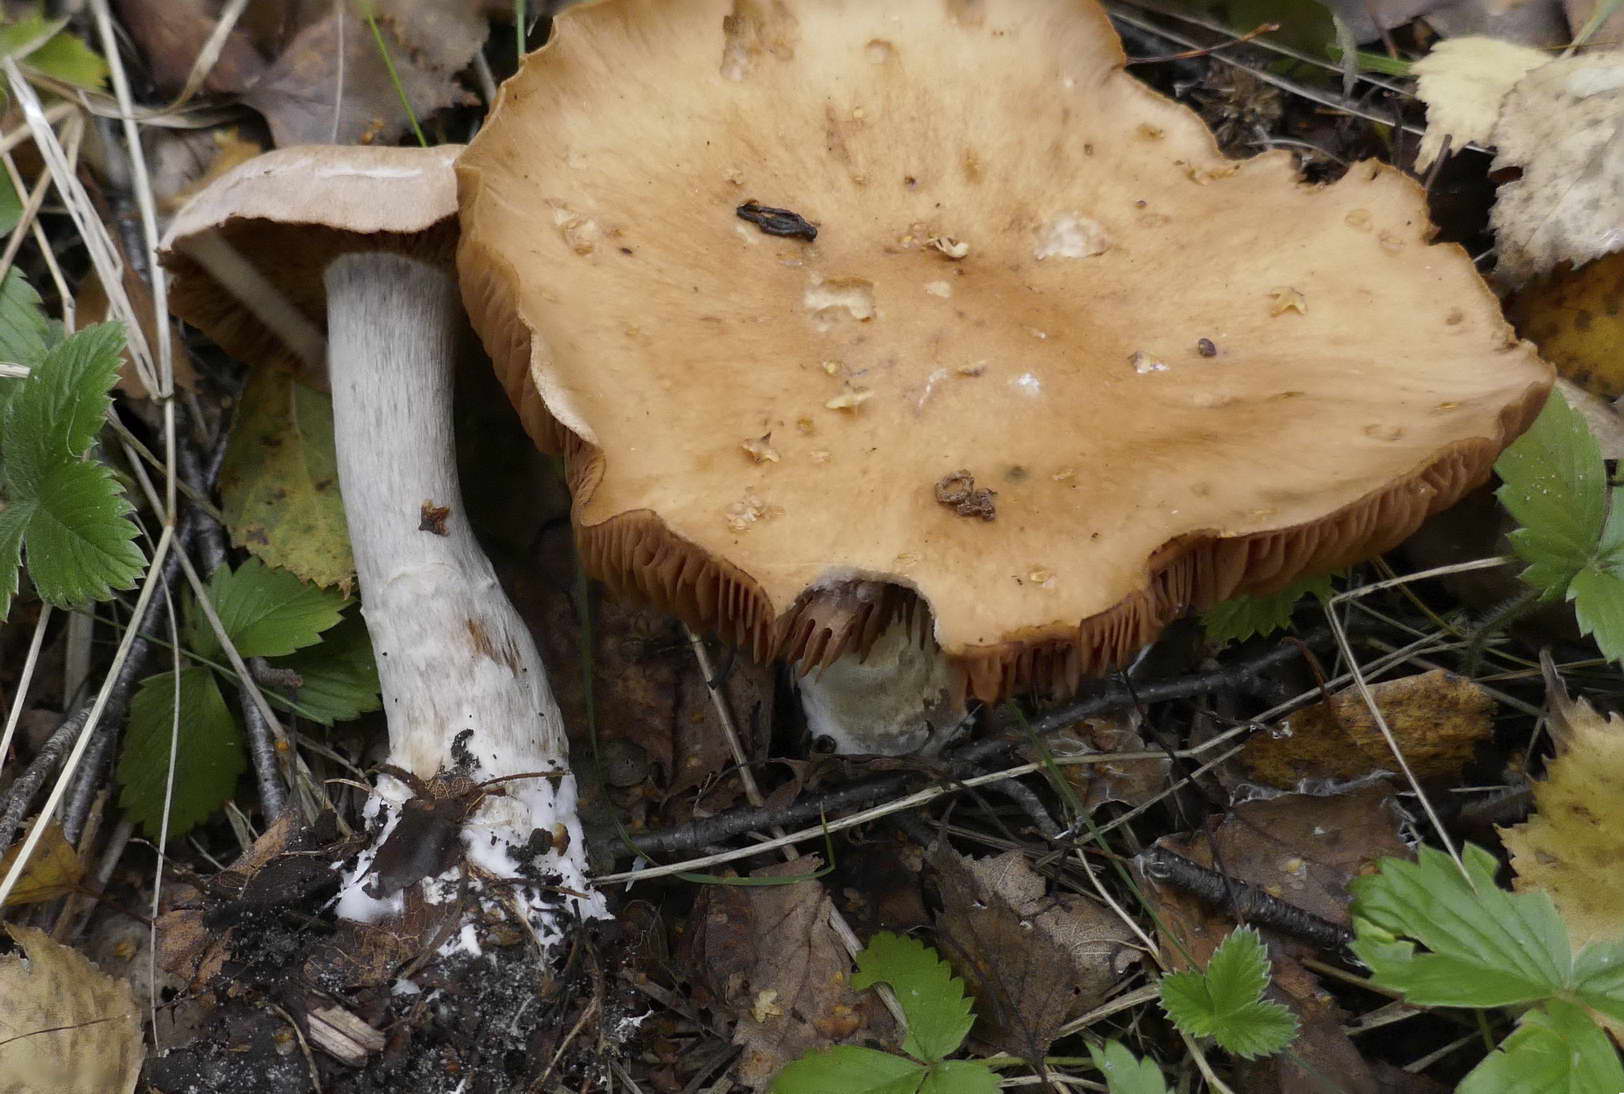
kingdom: Fungi
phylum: Basidiomycota
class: Agaricomycetes
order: Agaricales
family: Cortinariaceae
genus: Cortinarius
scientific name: Cortinarius bivelus
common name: orangebrun slørhat
